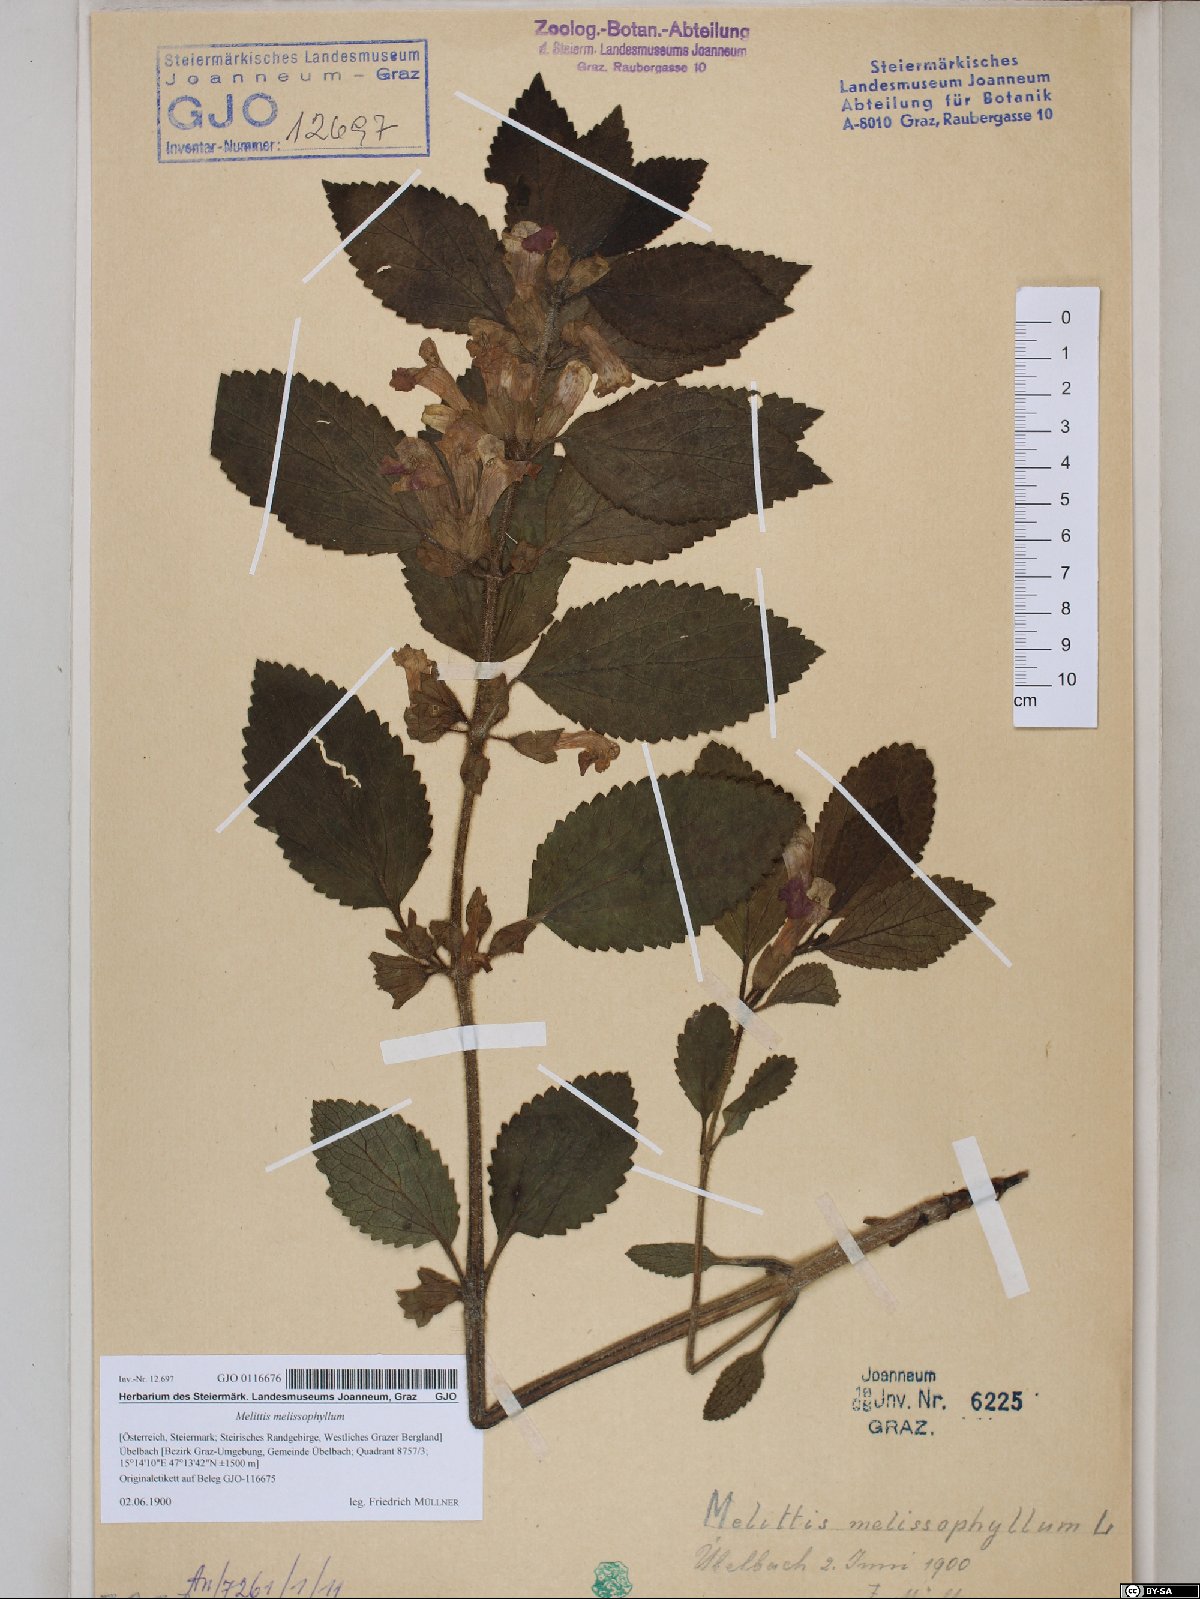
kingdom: Plantae
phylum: Tracheophyta
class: Magnoliopsida
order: Lamiales
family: Lamiaceae
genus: Melittis
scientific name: Melittis melissophyllum
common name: Bastard balm
